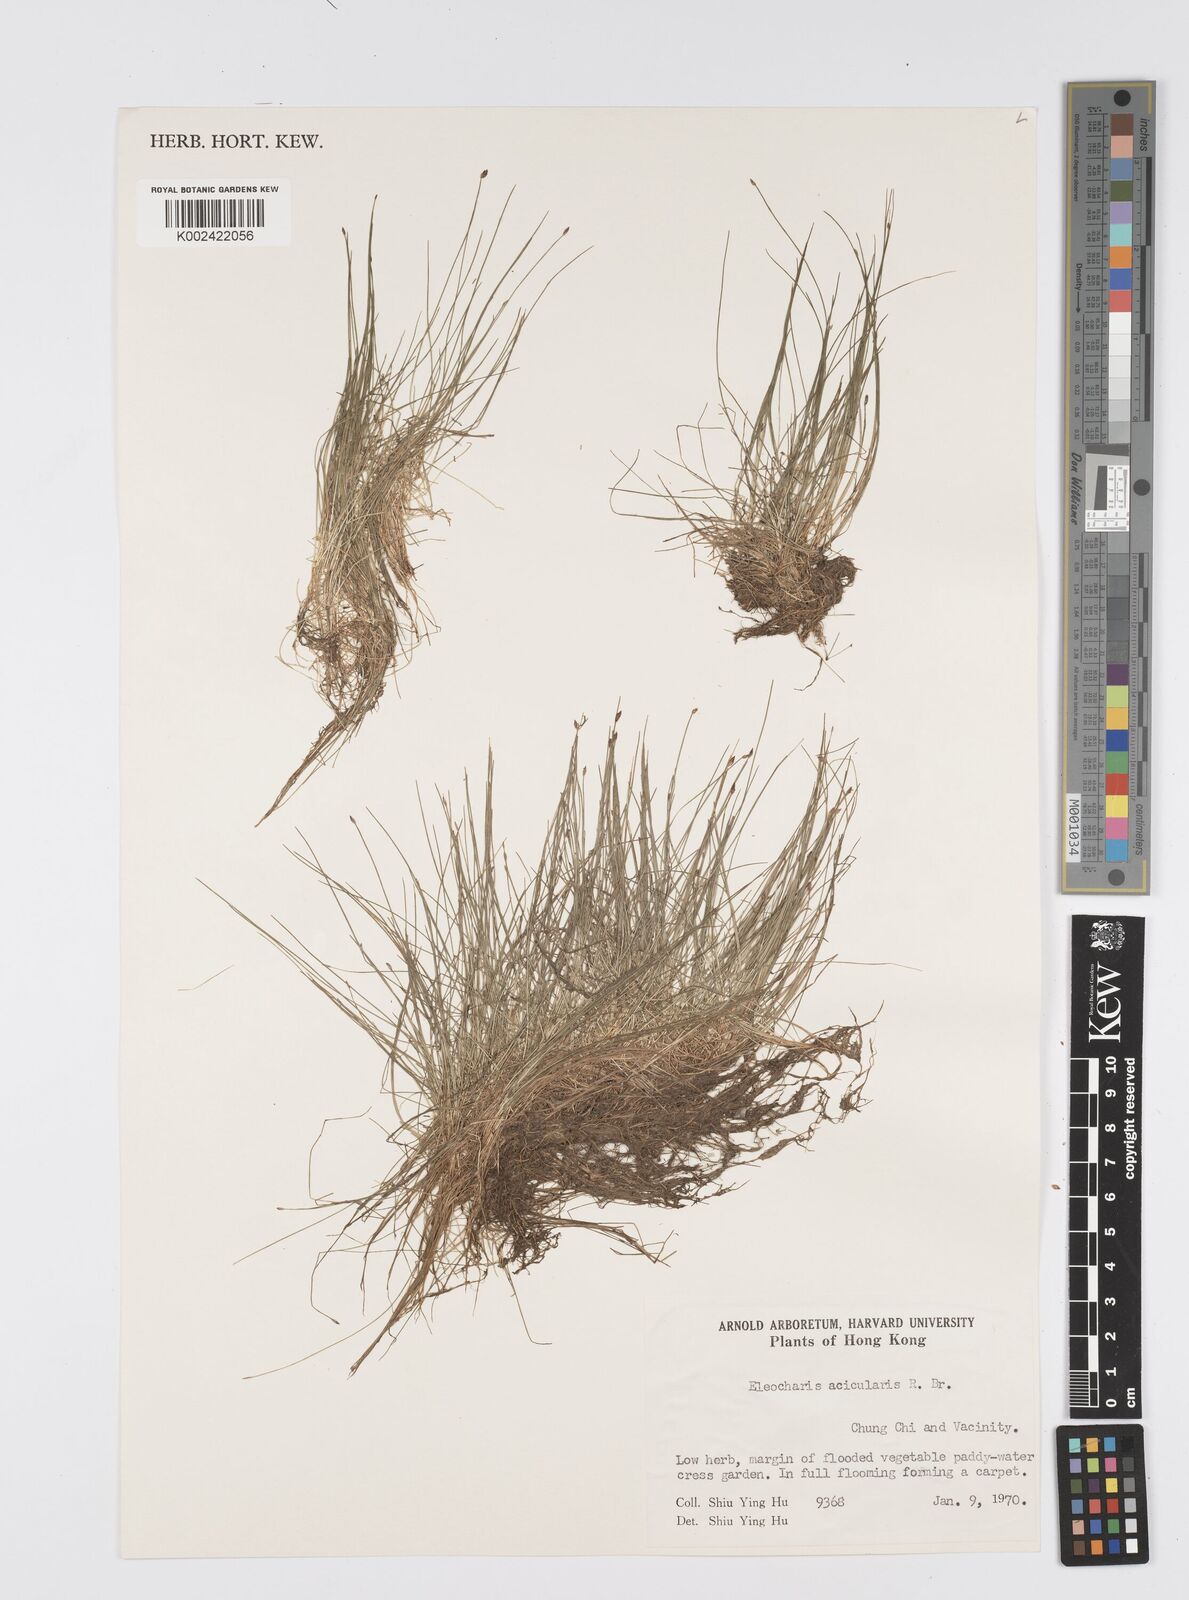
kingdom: Plantae
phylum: Tracheophyta
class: Liliopsida
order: Poales
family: Cyperaceae
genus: Eleocharis
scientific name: Eleocharis acicularis
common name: Needle spike-rush
